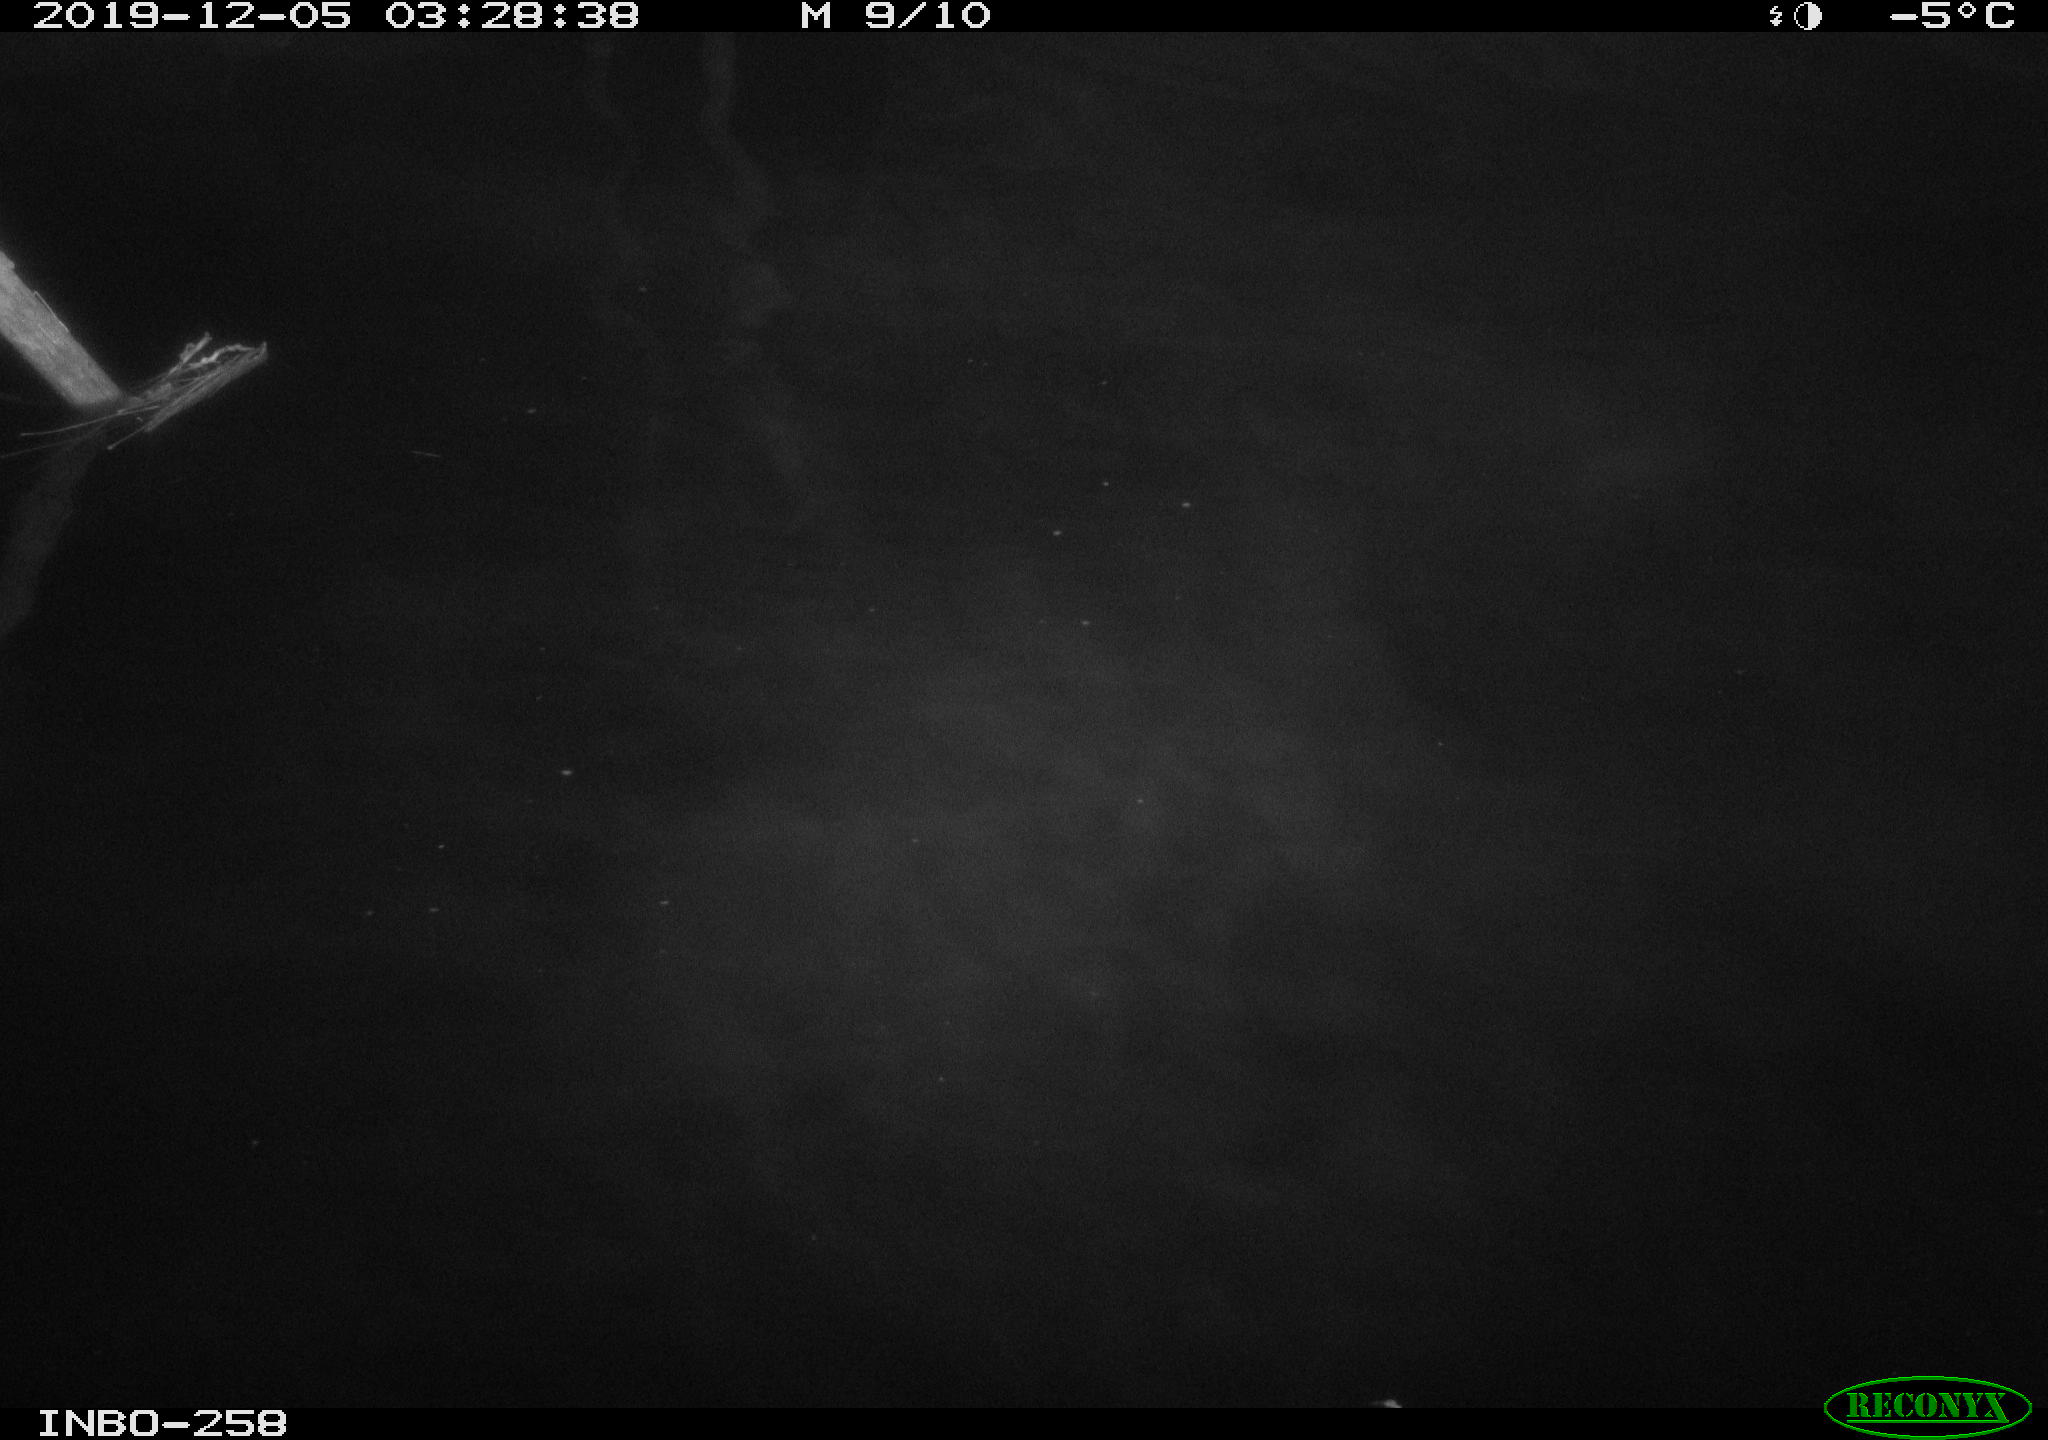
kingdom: Animalia
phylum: Chordata
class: Aves
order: Anseriformes
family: Anatidae
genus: Anas
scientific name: Anas platyrhynchos
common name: Mallard
